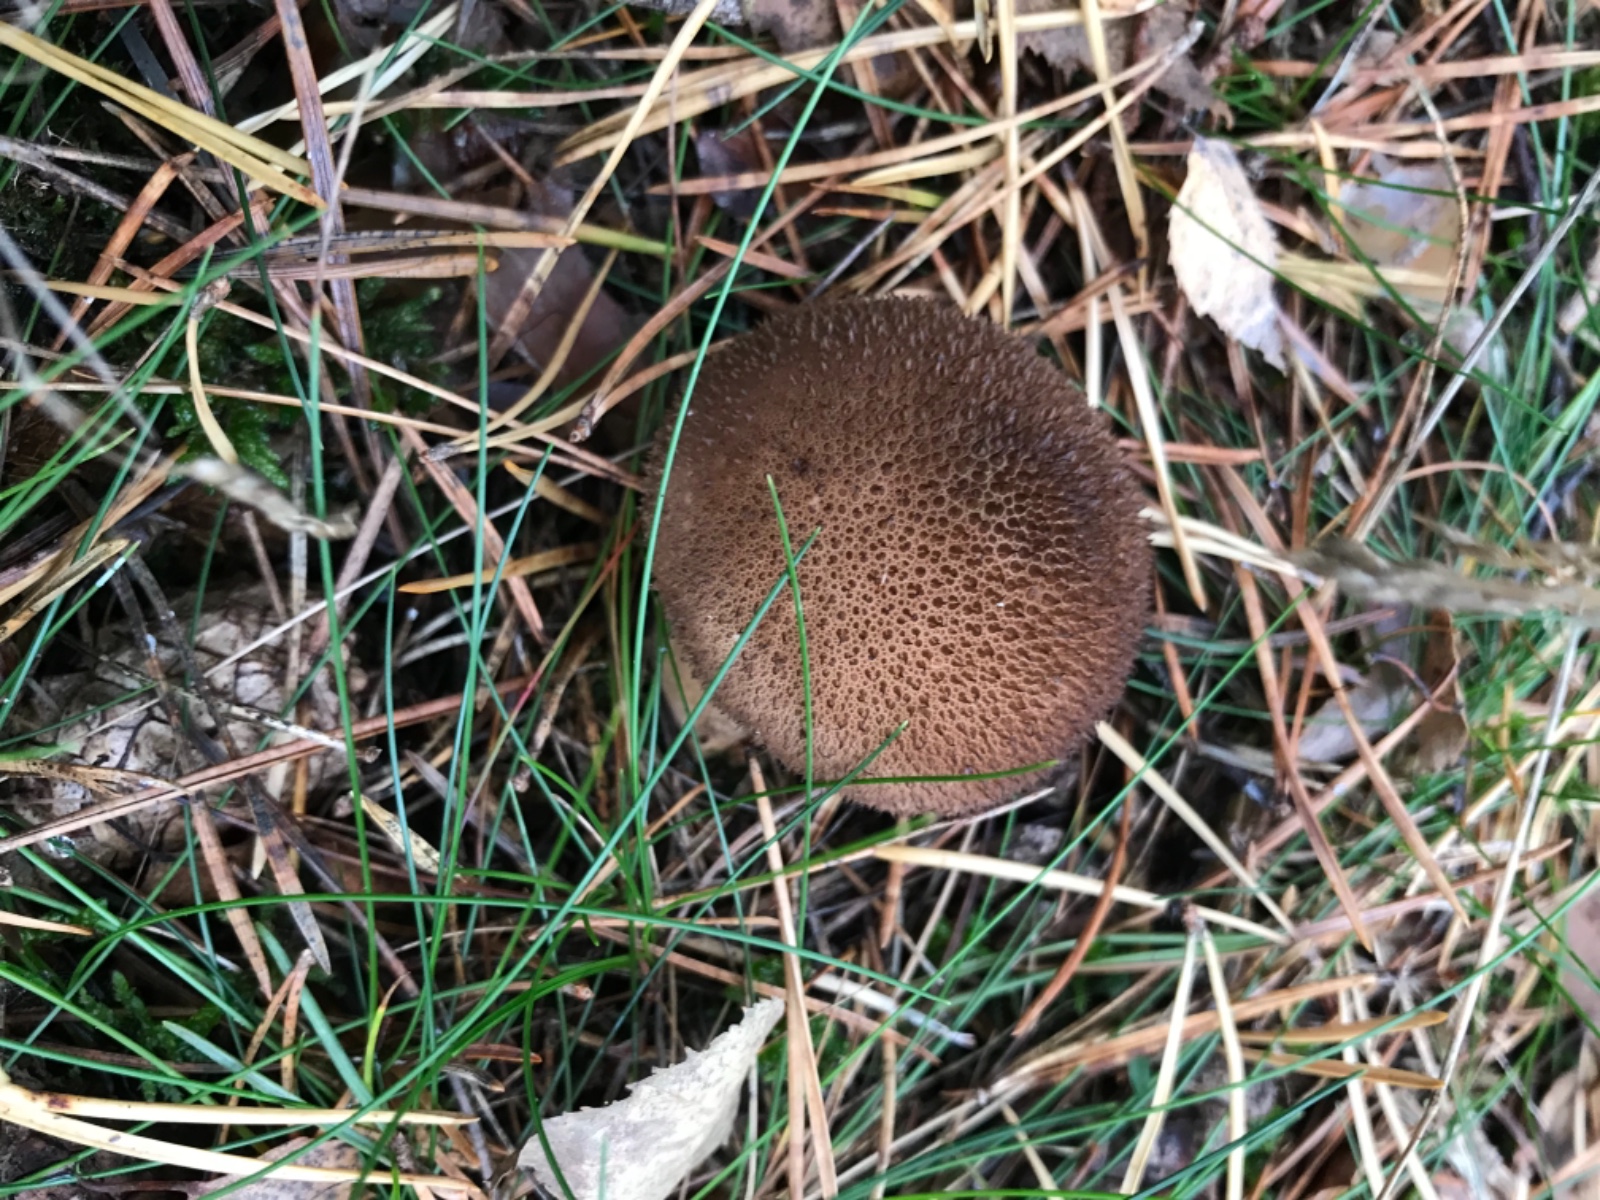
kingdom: Fungi
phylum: Basidiomycota
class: Agaricomycetes
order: Agaricales
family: Lycoperdaceae
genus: Lycoperdon
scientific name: Lycoperdon nigrescens
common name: sortagtig støvbold
